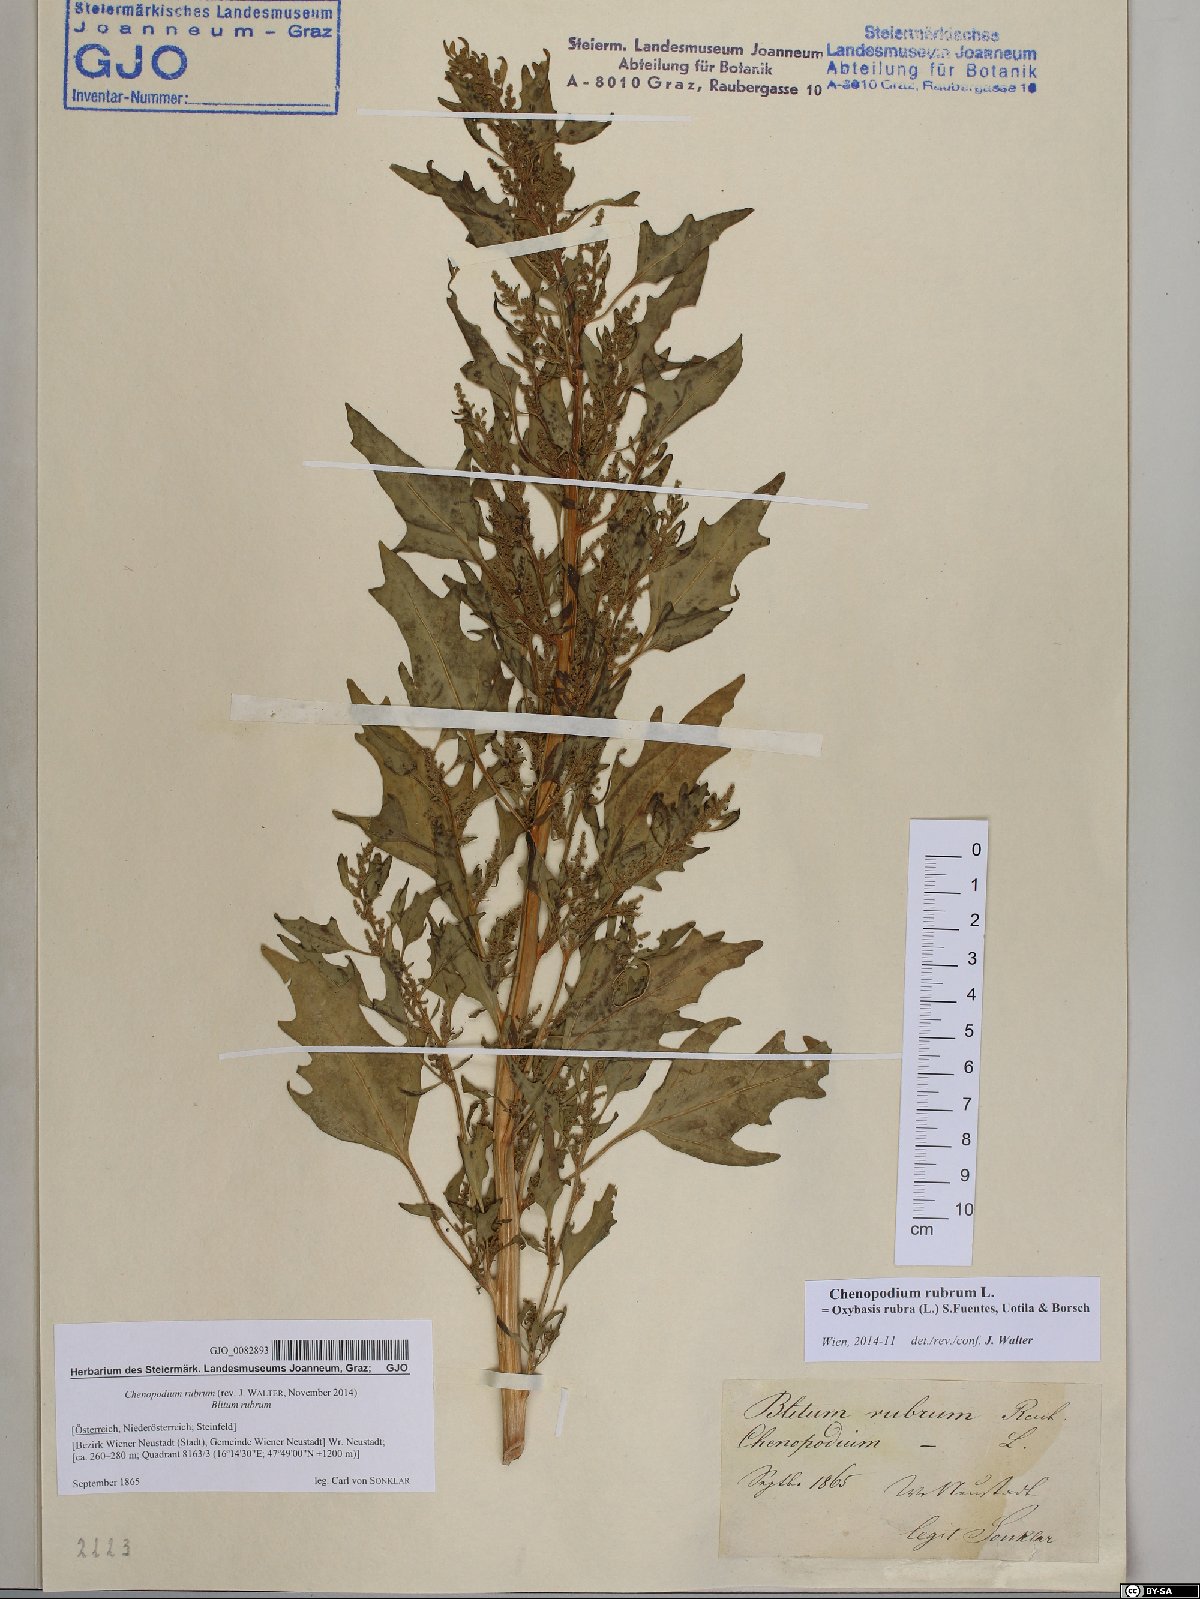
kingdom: Plantae
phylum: Tracheophyta
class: Magnoliopsida
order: Caryophyllales
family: Amaranthaceae
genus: Oxybasis
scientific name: Oxybasis rubra
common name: Red goosefoot
